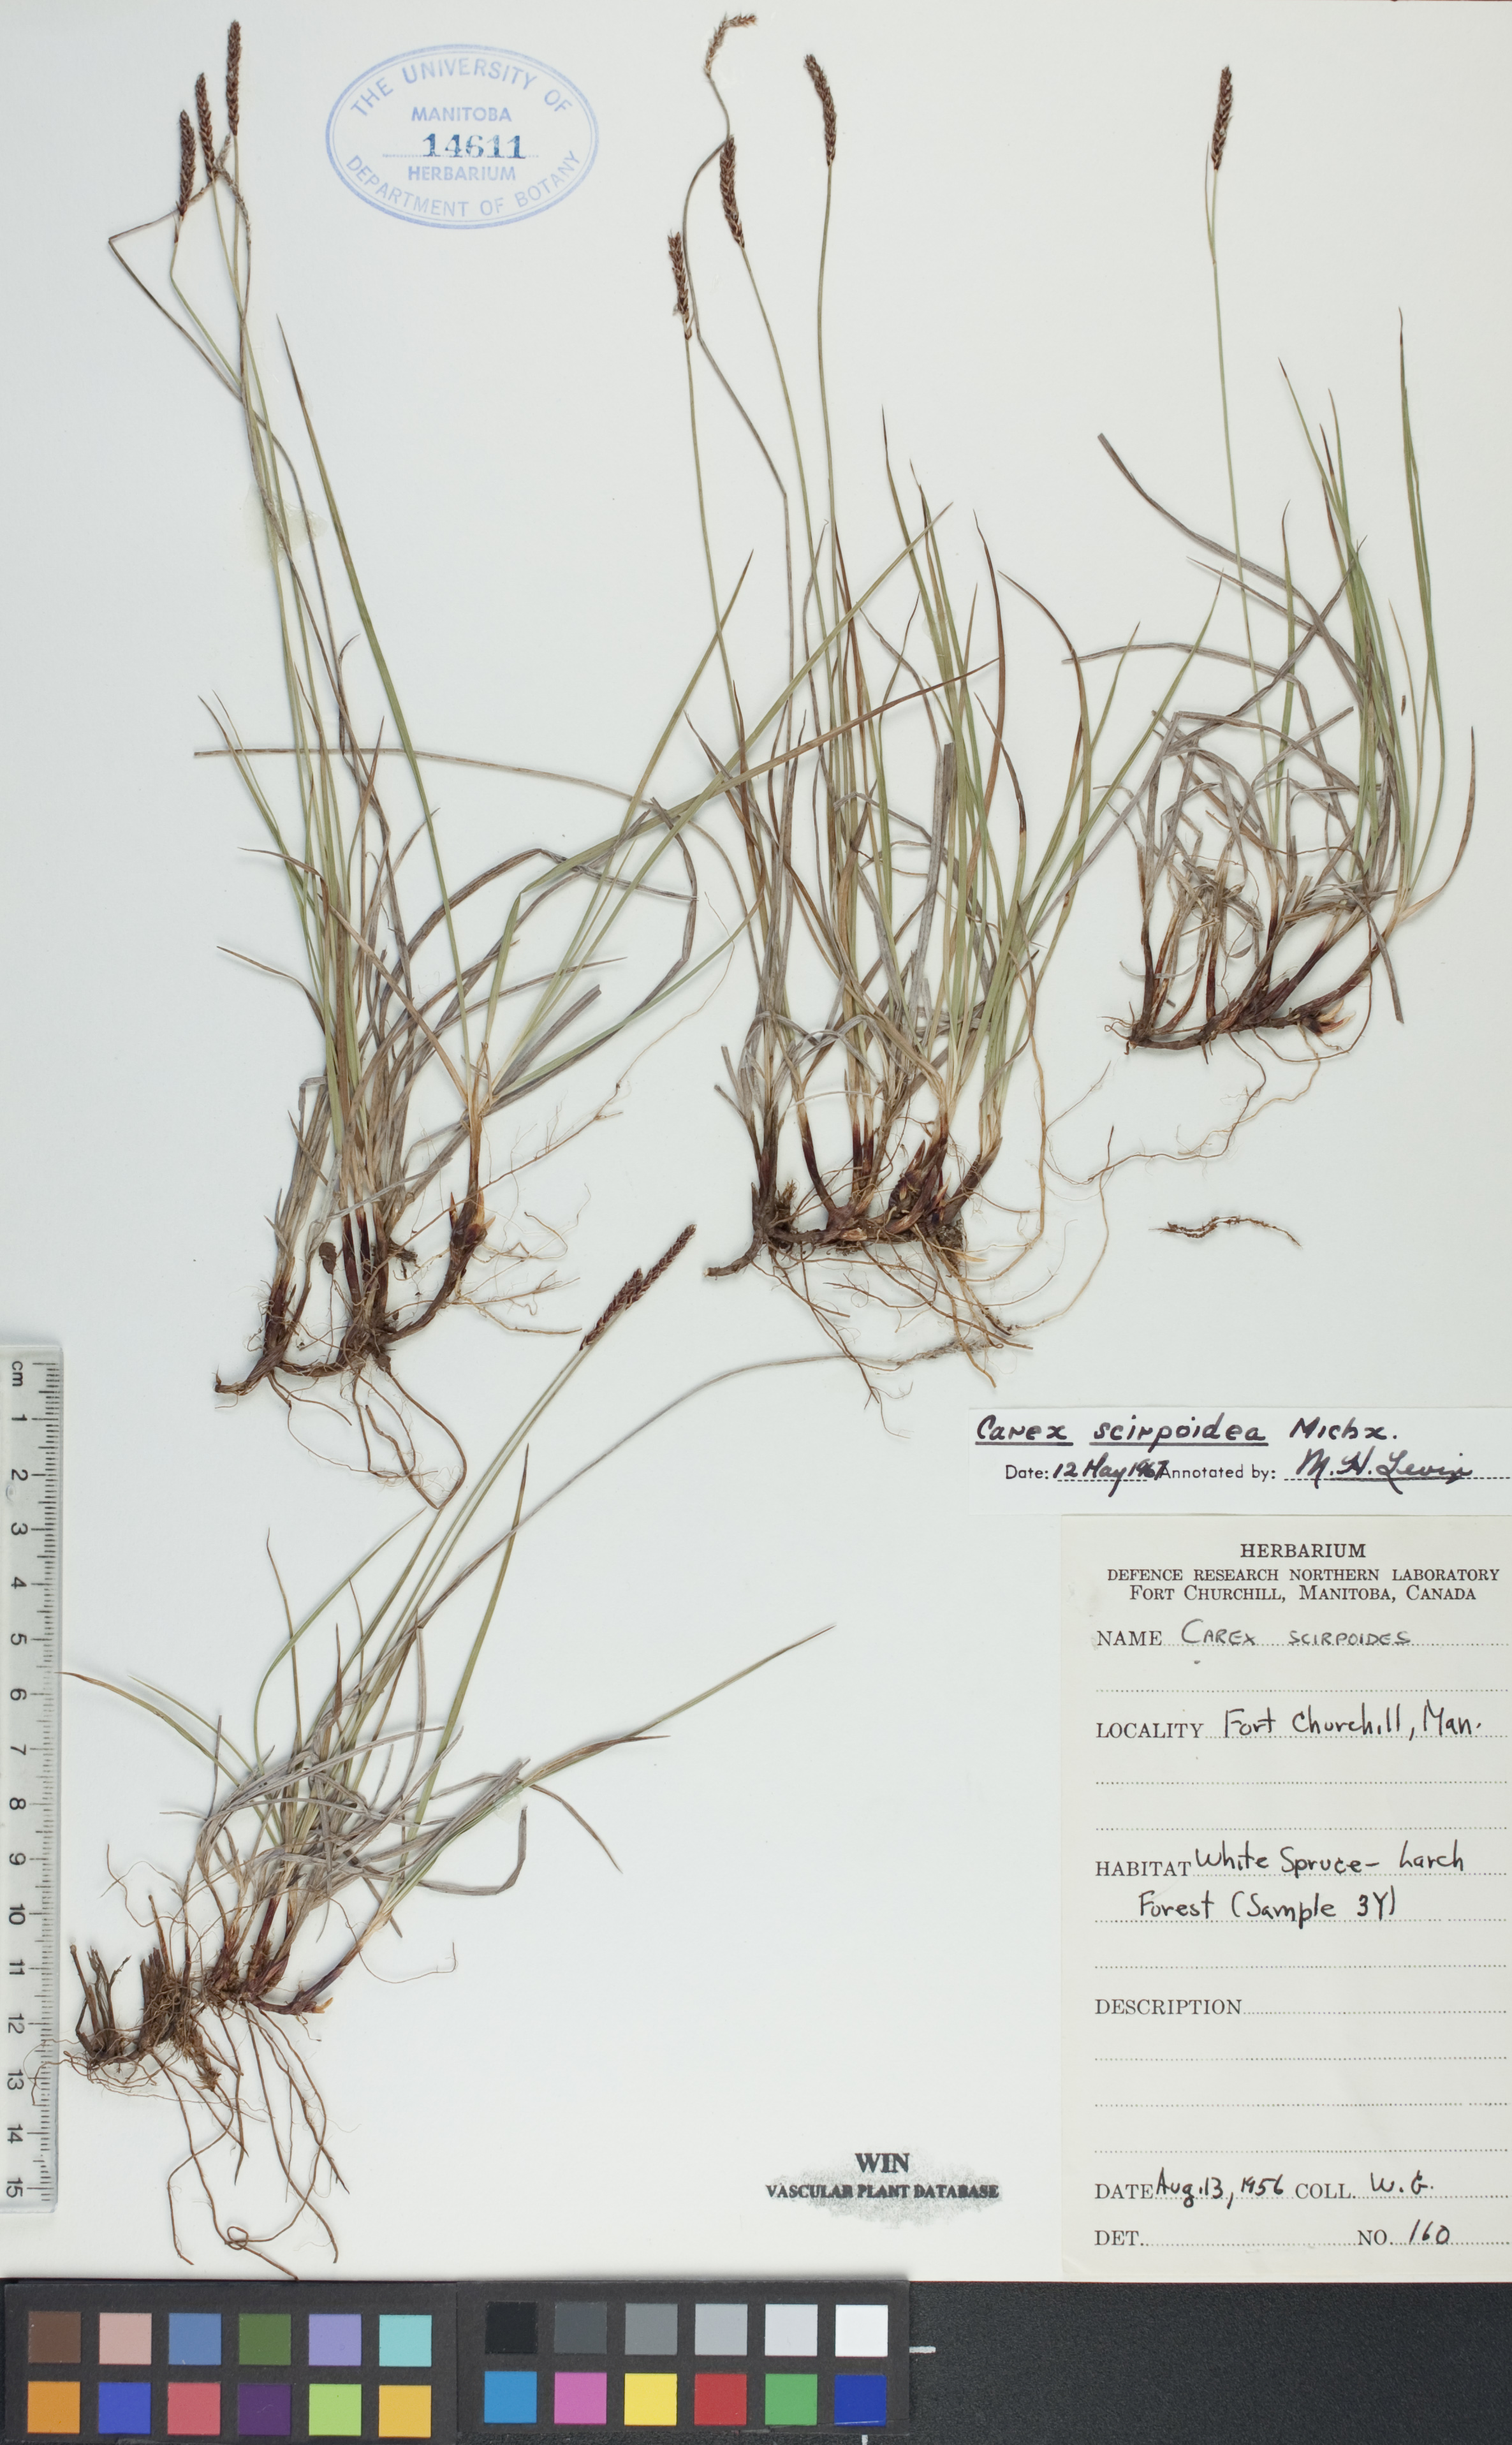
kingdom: Plantae
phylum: Tracheophyta
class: Liliopsida
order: Poales
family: Cyperaceae
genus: Carex
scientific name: Carex scirpoidea
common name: Canada single-spike sedge
